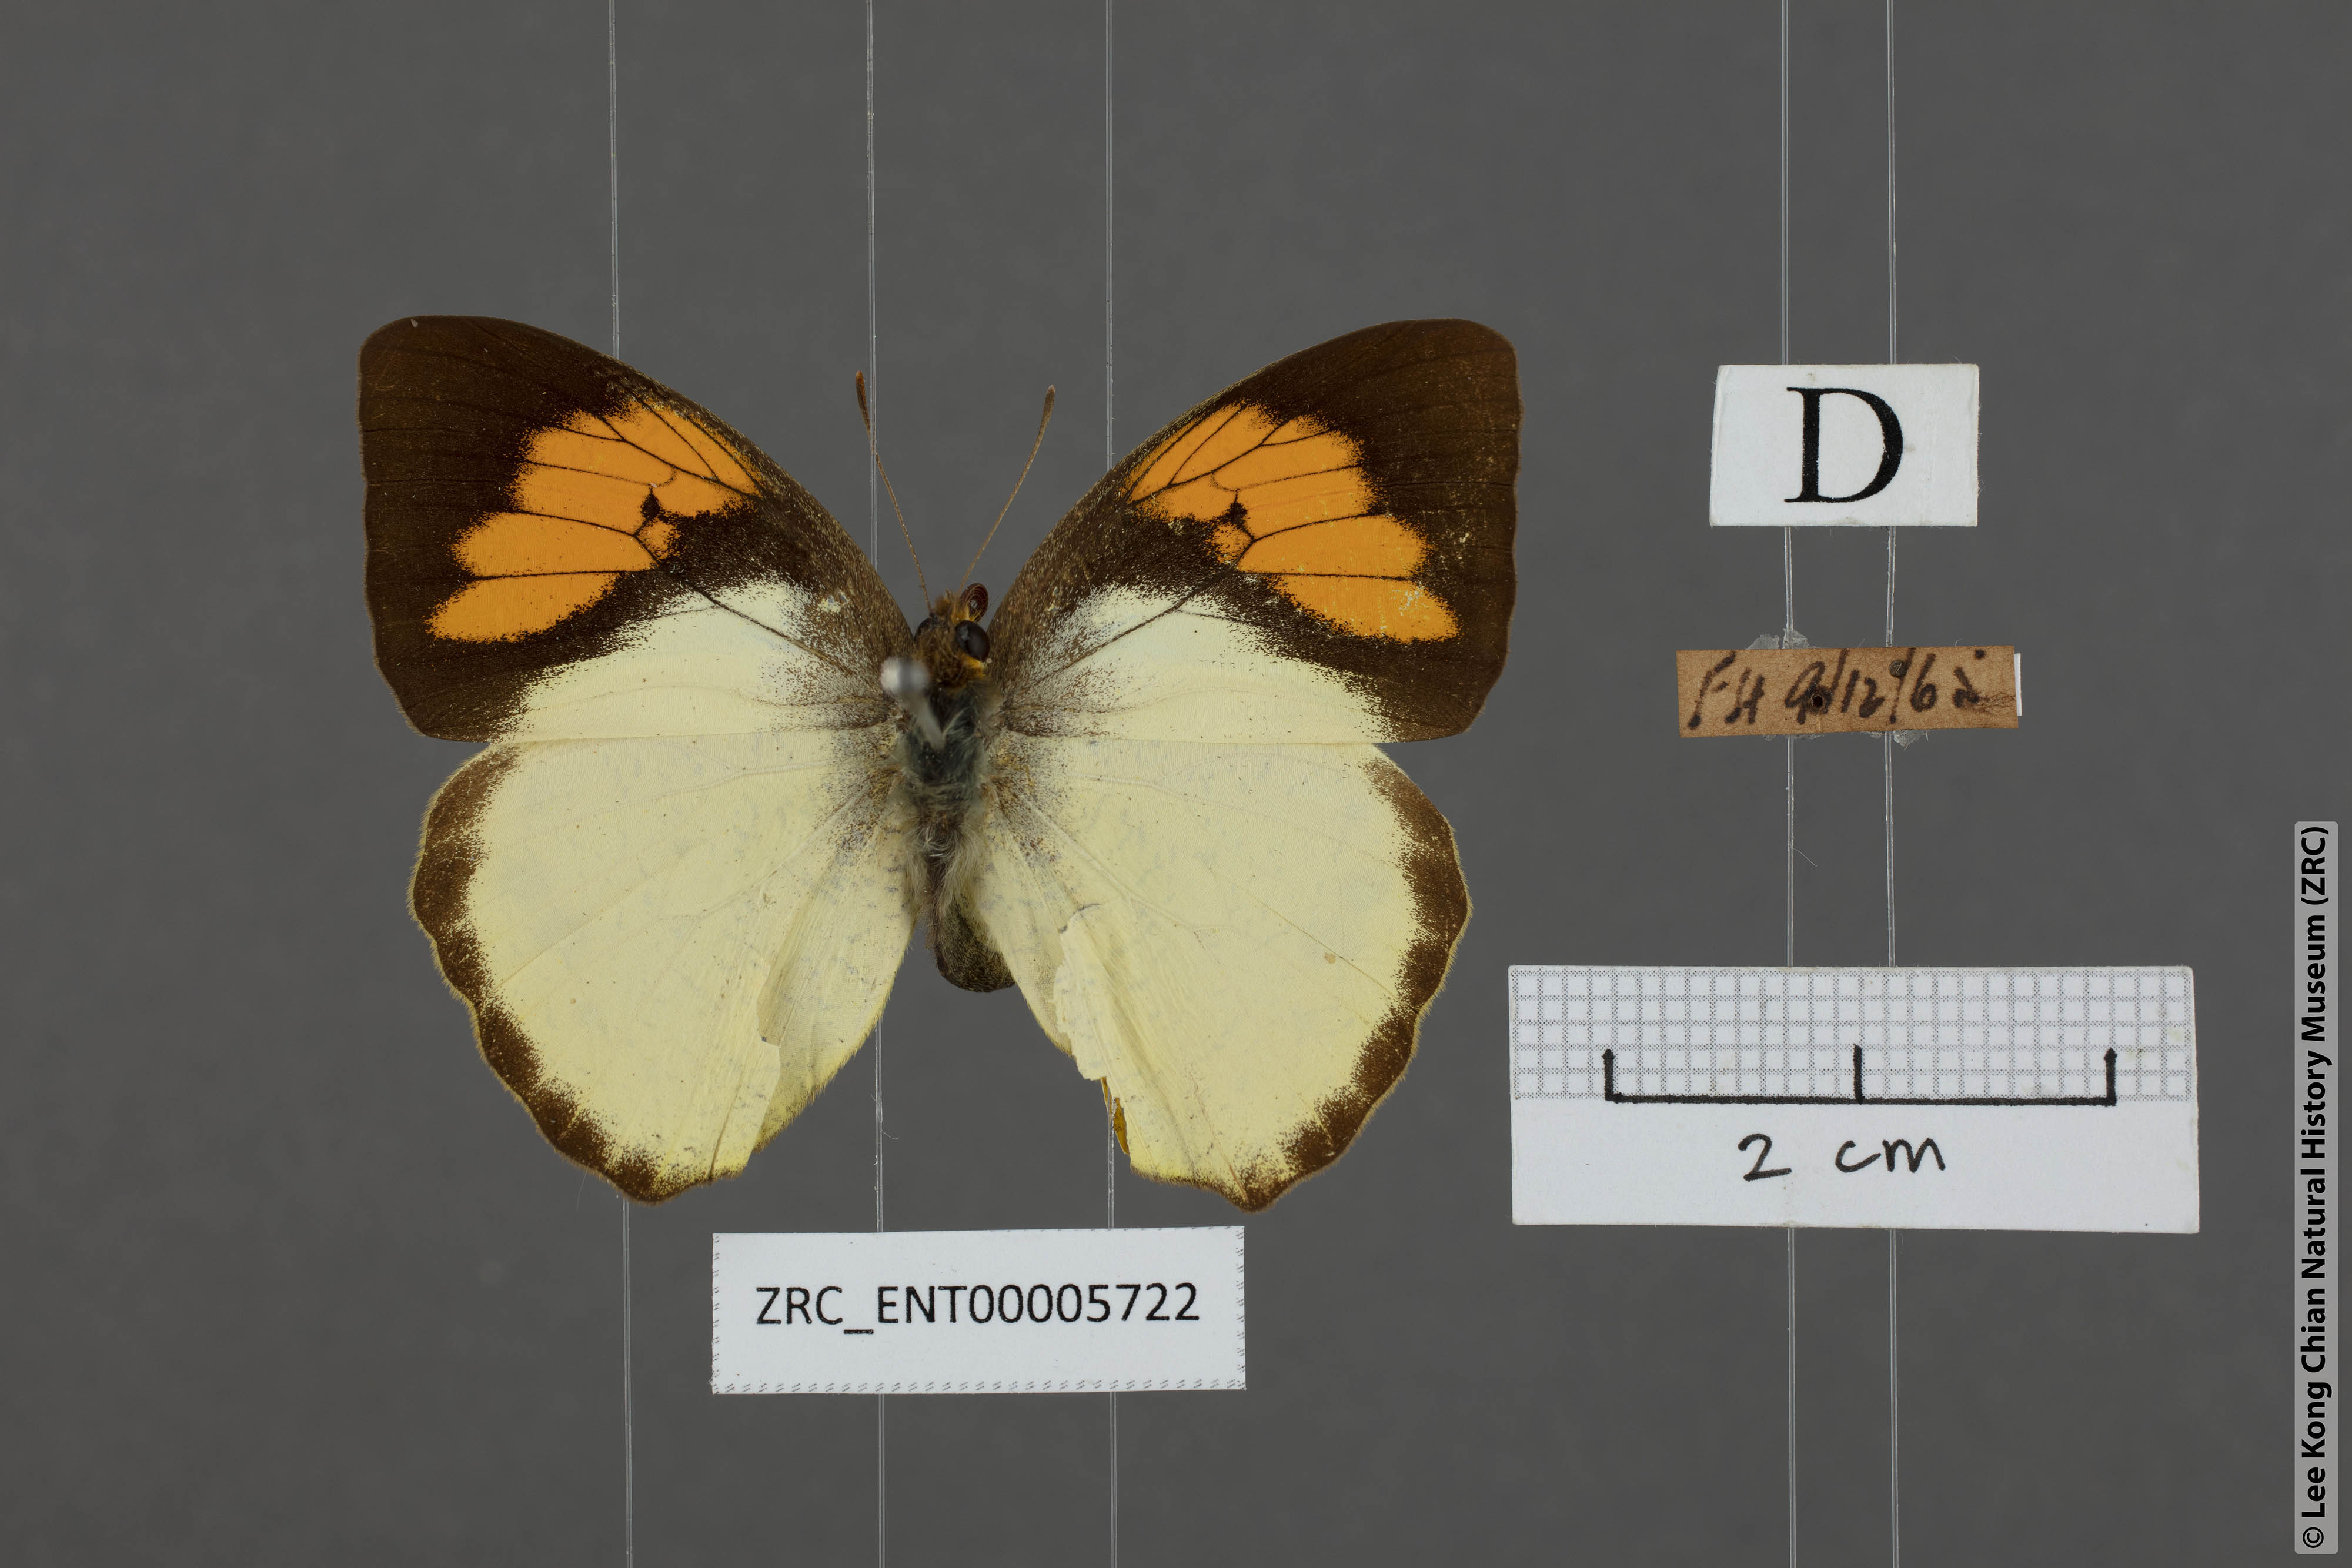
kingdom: Animalia
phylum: Arthropoda
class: Insecta
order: Lepidoptera
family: Pieridae
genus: Ixias
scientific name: Ixias pyrene
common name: Yellow orange tip
